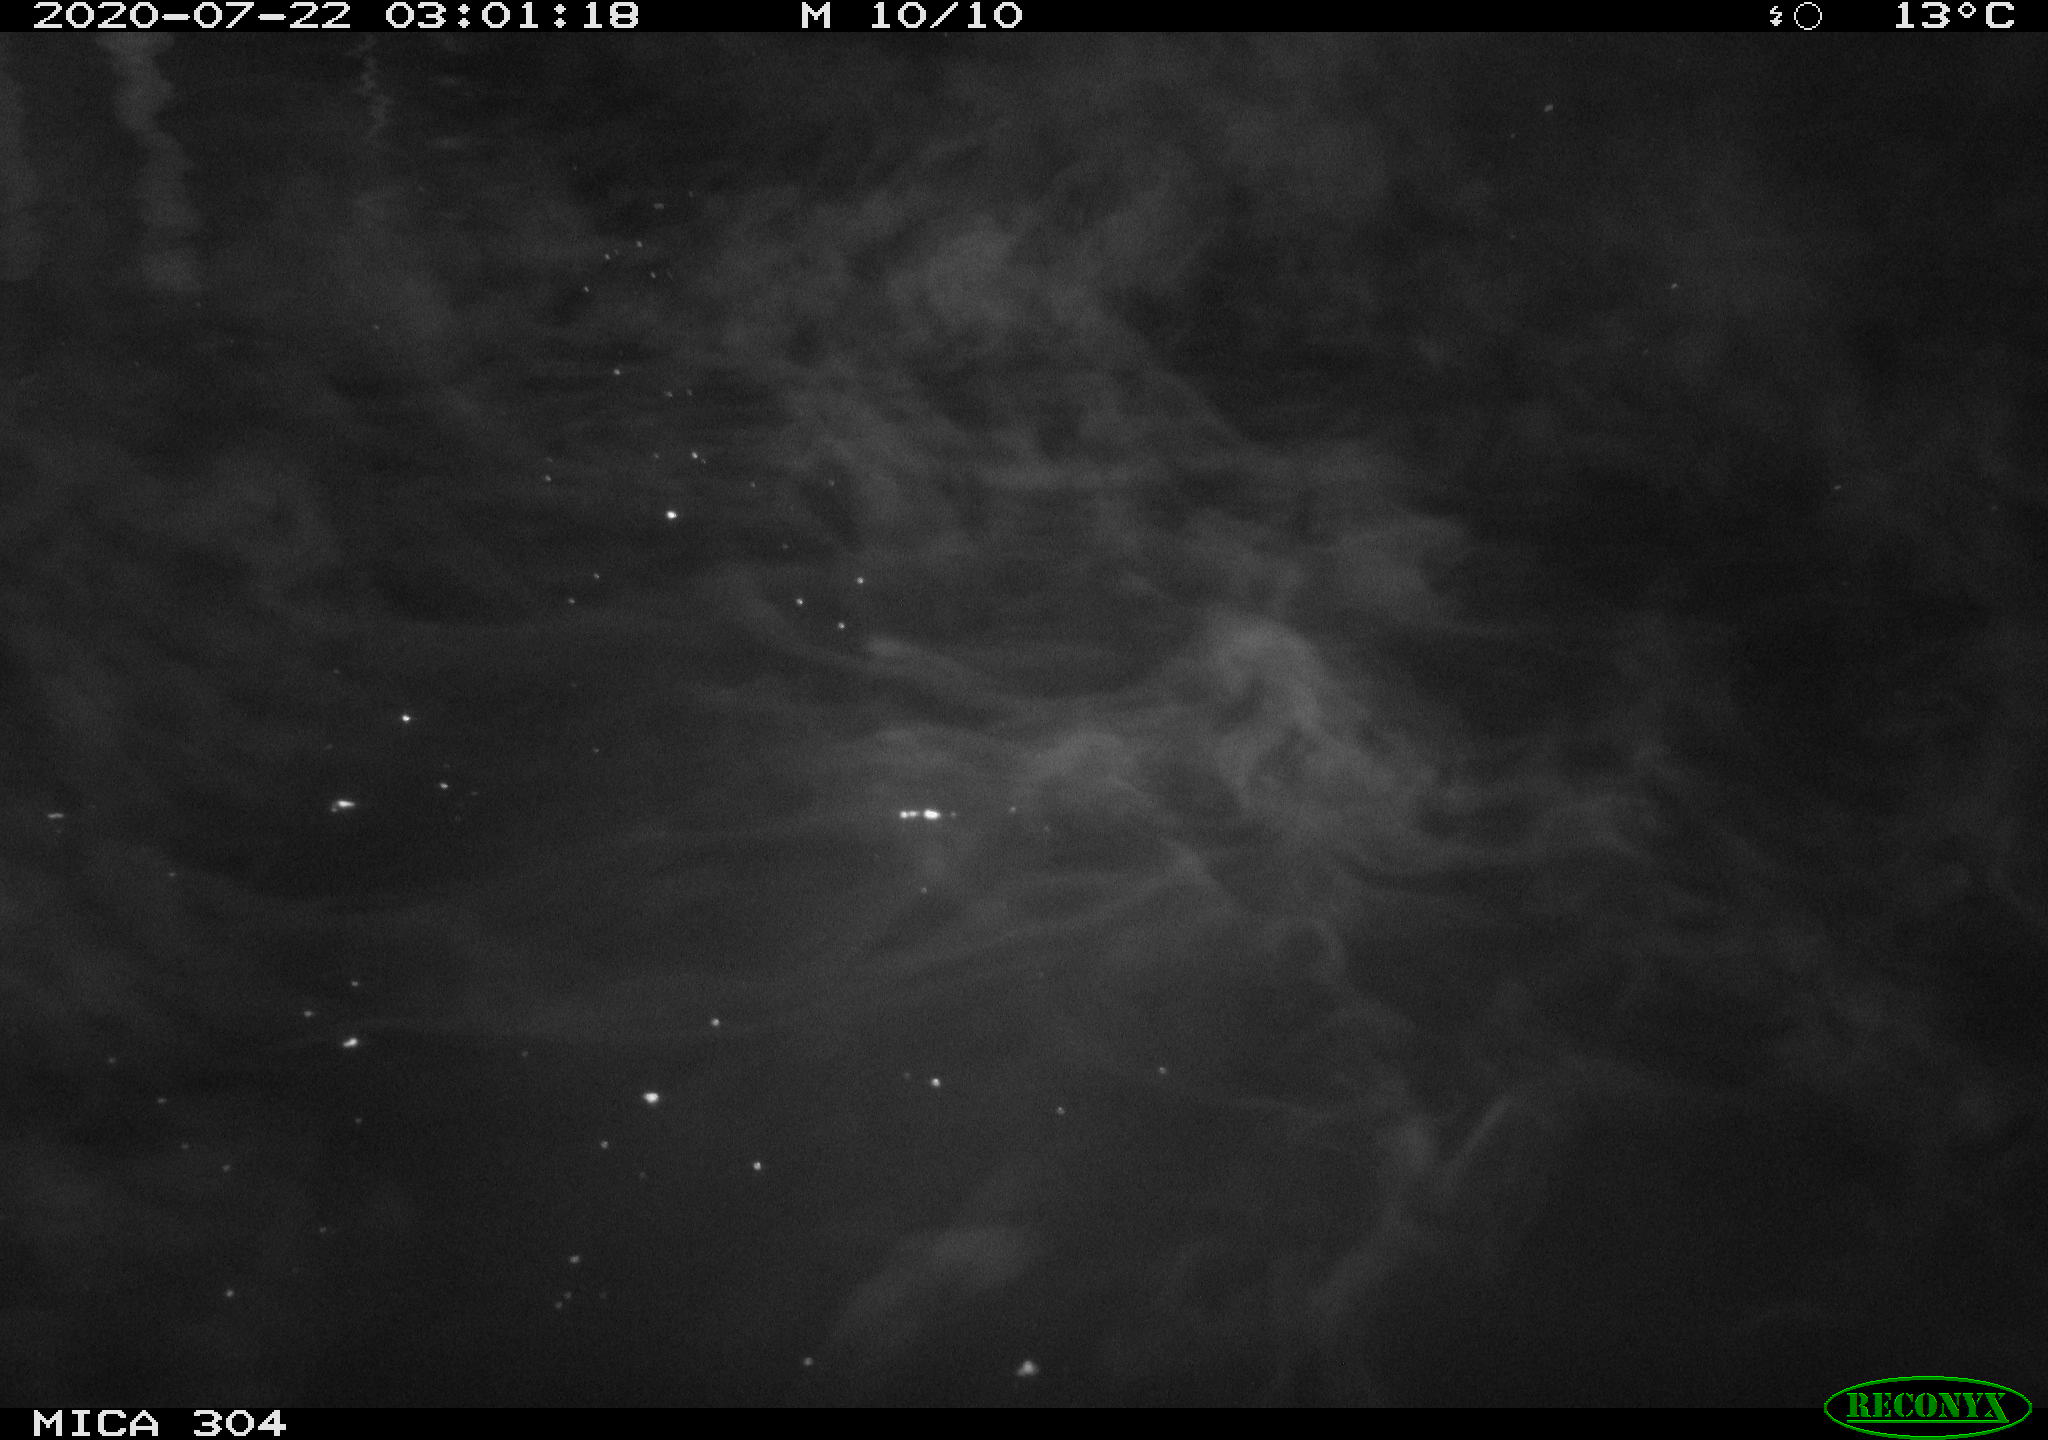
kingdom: Animalia
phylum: Chordata
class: Mammalia
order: Rodentia
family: Cricetidae
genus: Ondatra
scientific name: Ondatra zibethicus
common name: Muskrat
